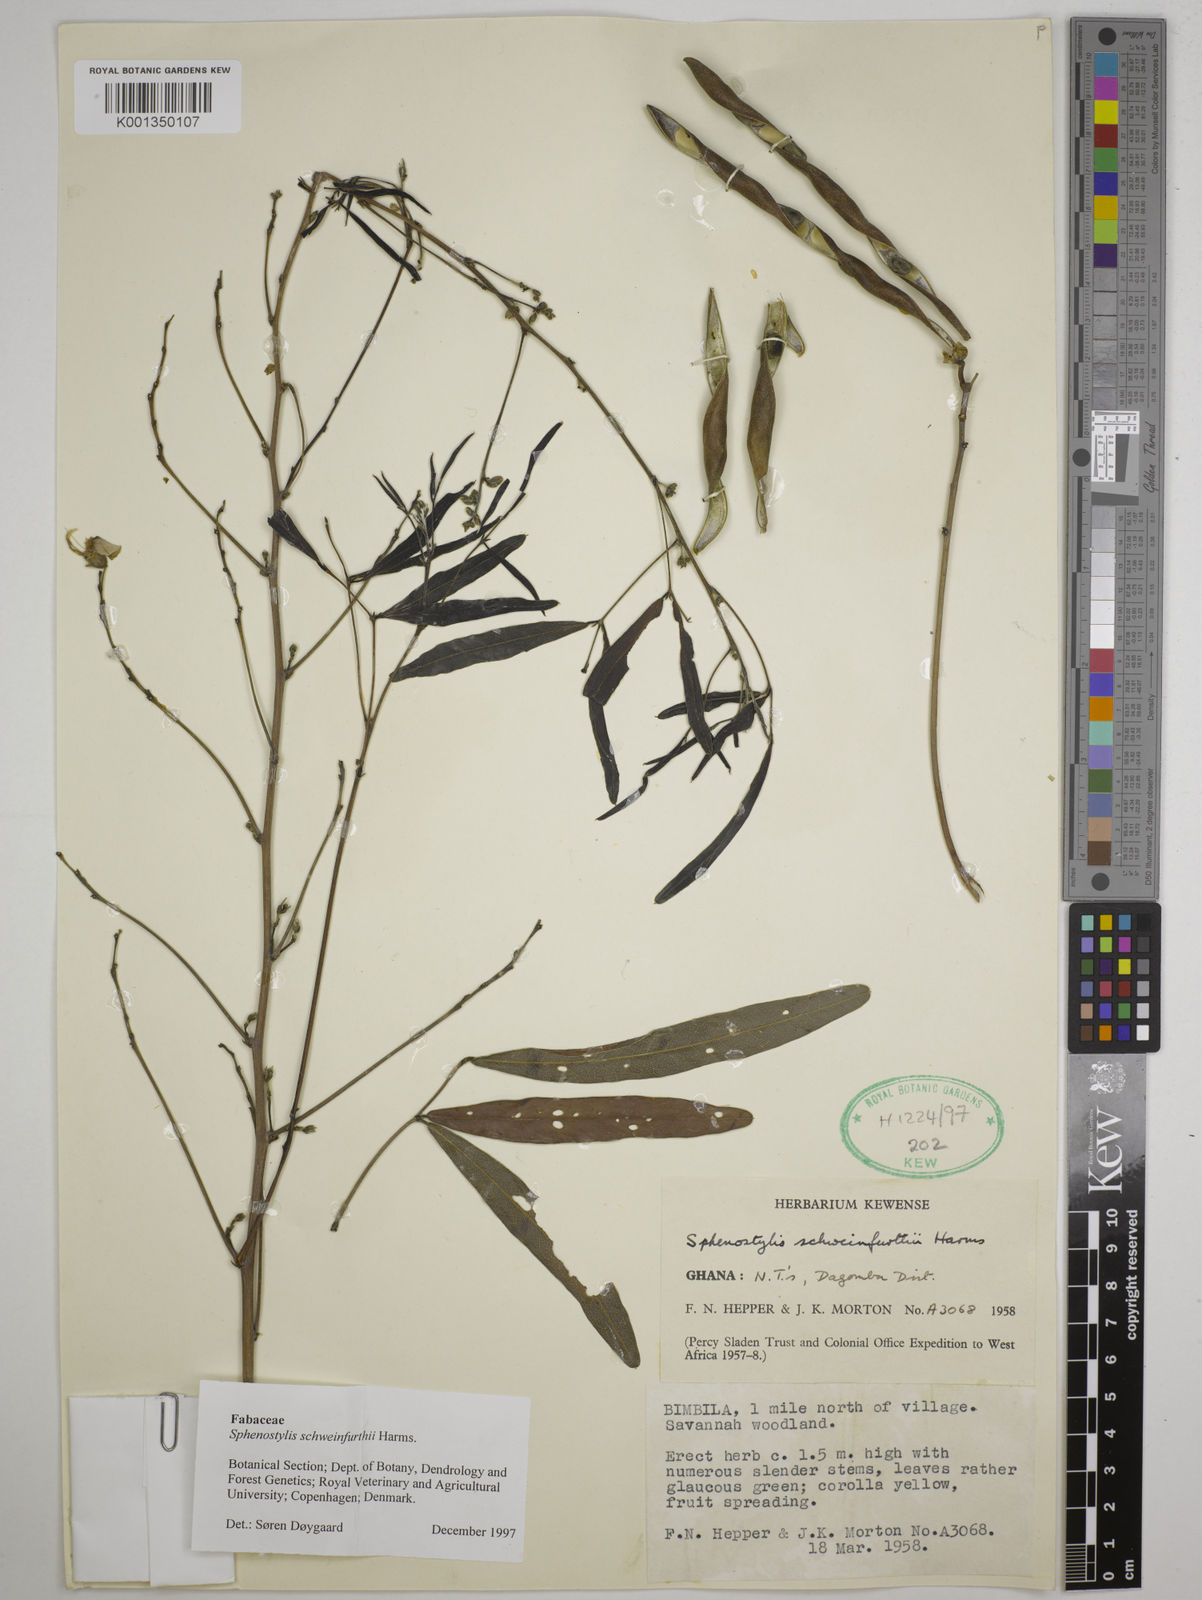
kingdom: Plantae
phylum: Tracheophyta
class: Magnoliopsida
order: Fabales
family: Fabaceae
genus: Sphenostylis
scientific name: Sphenostylis schweinfurthii
